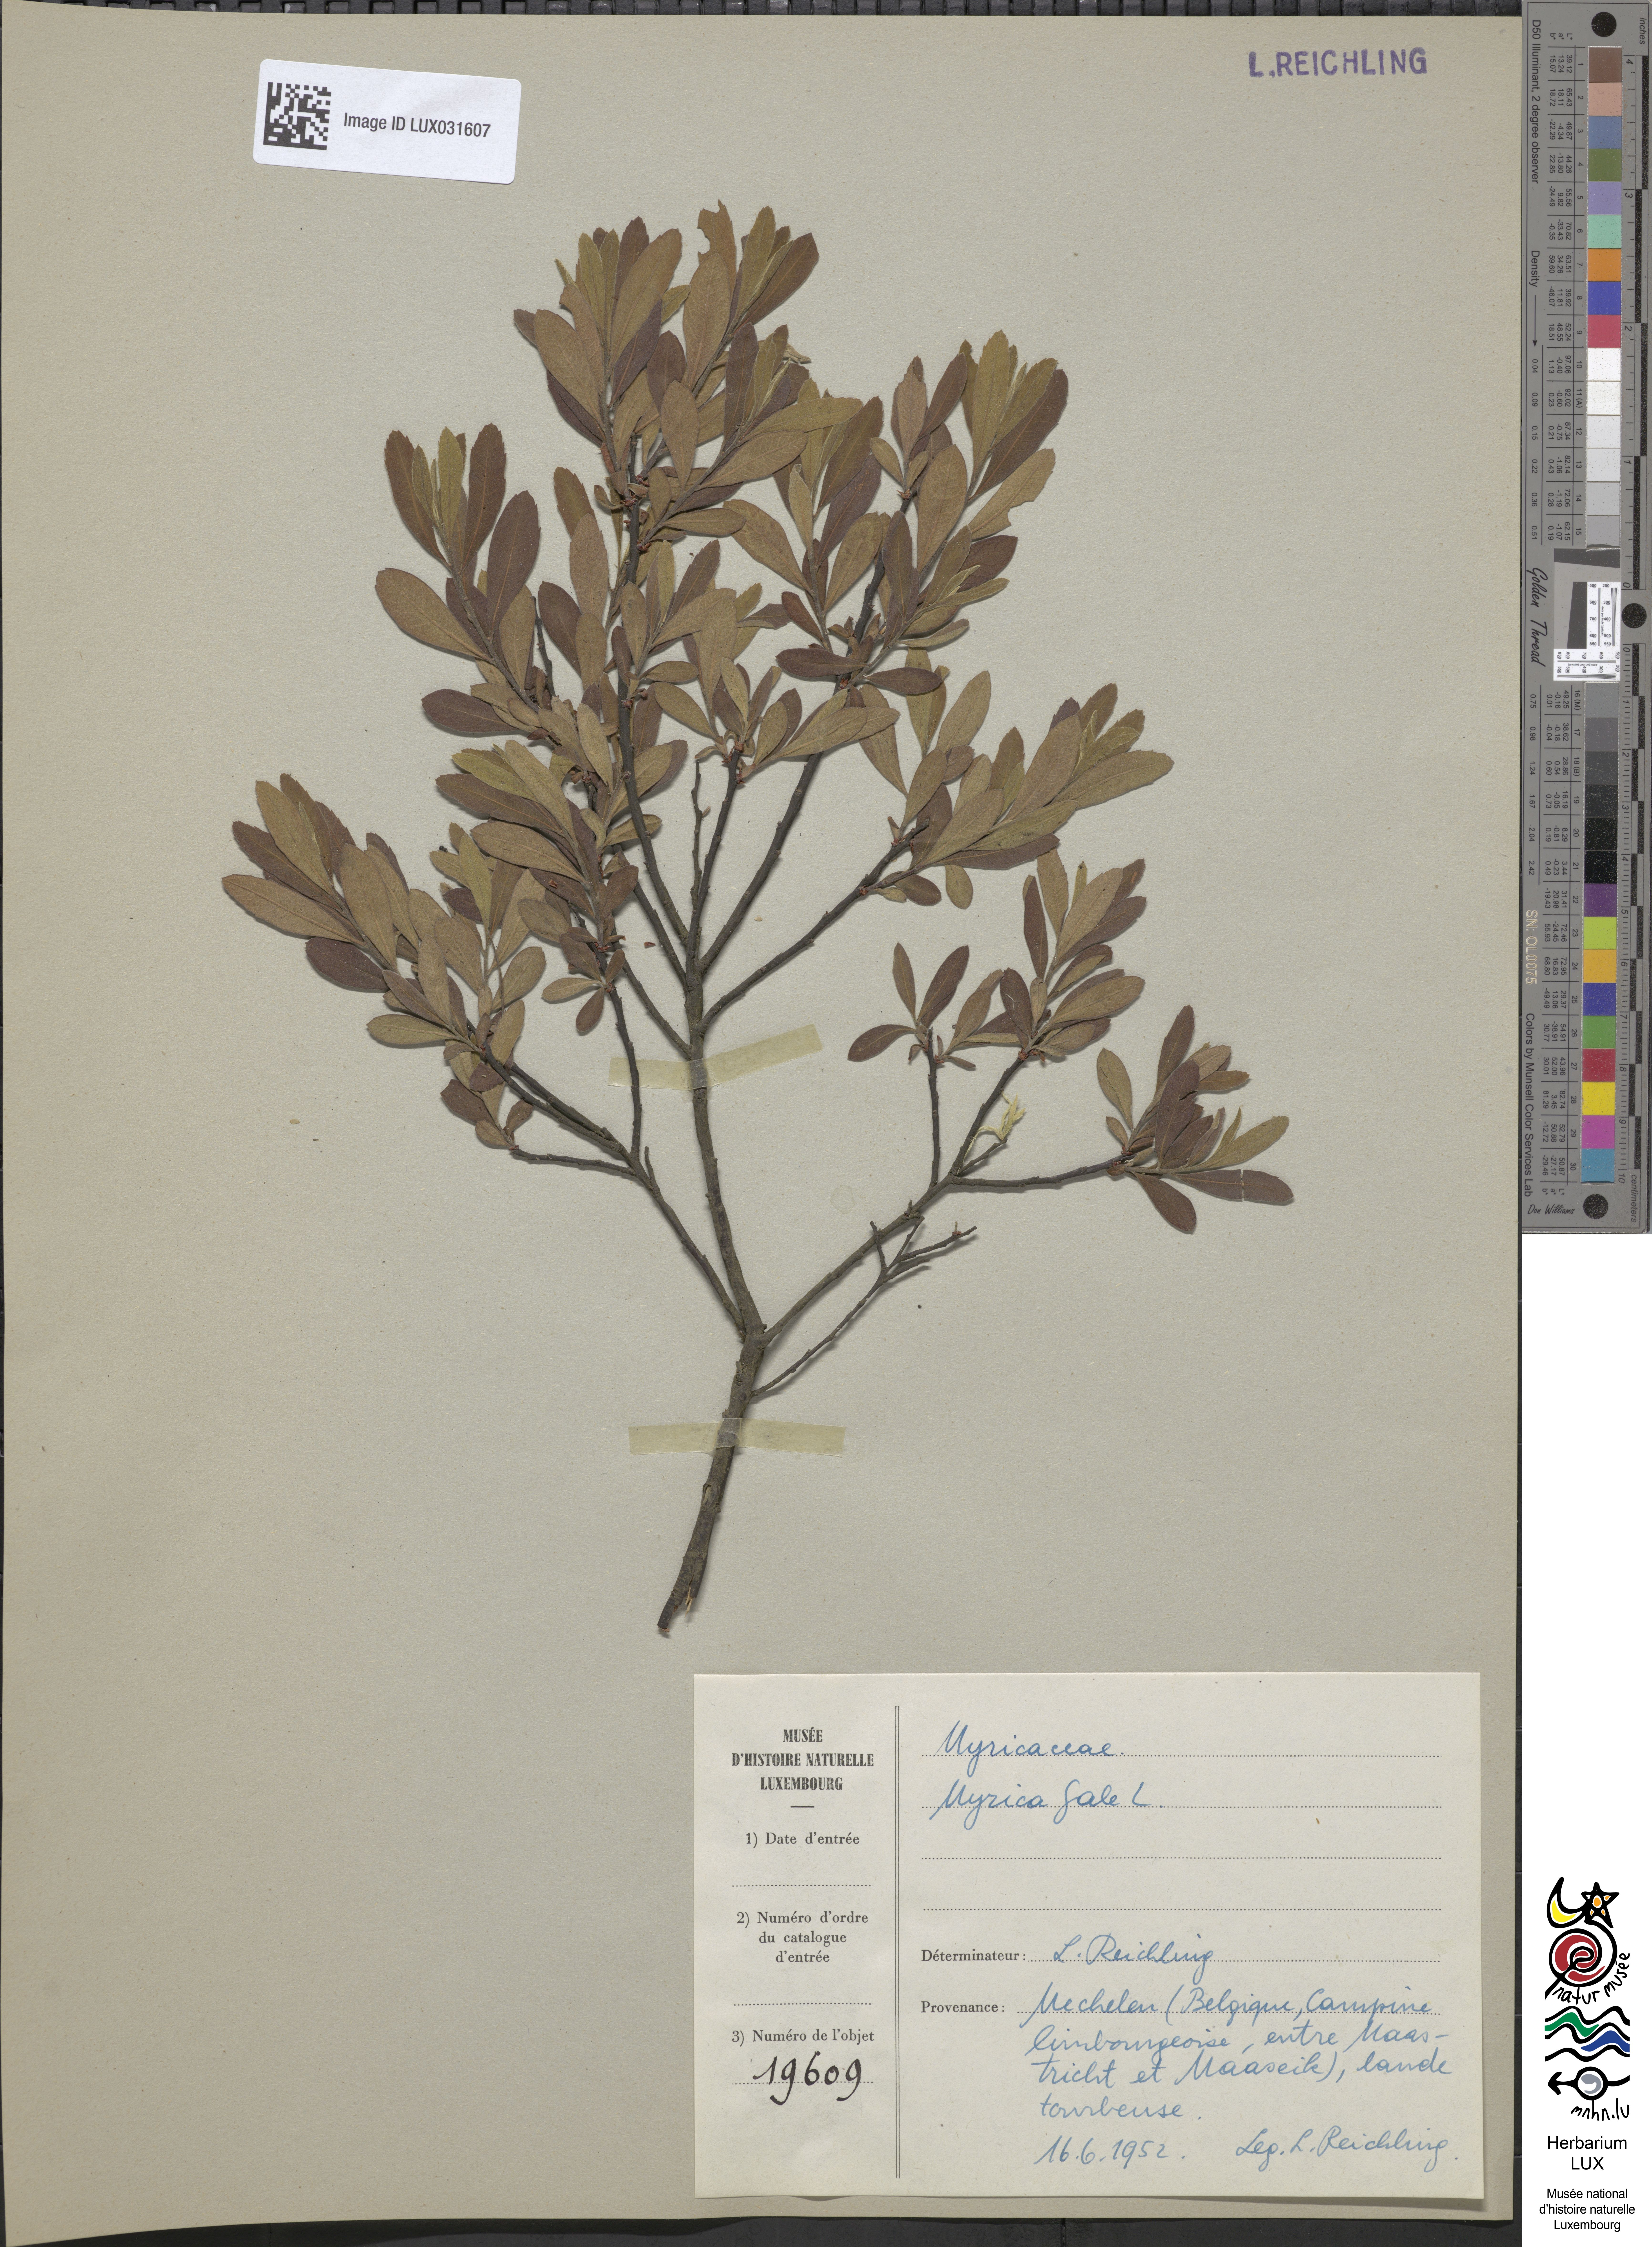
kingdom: Plantae
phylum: Tracheophyta
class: Magnoliopsida
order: Fagales
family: Myricaceae
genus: Myrica
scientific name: Myrica gale
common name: Sweet gale
